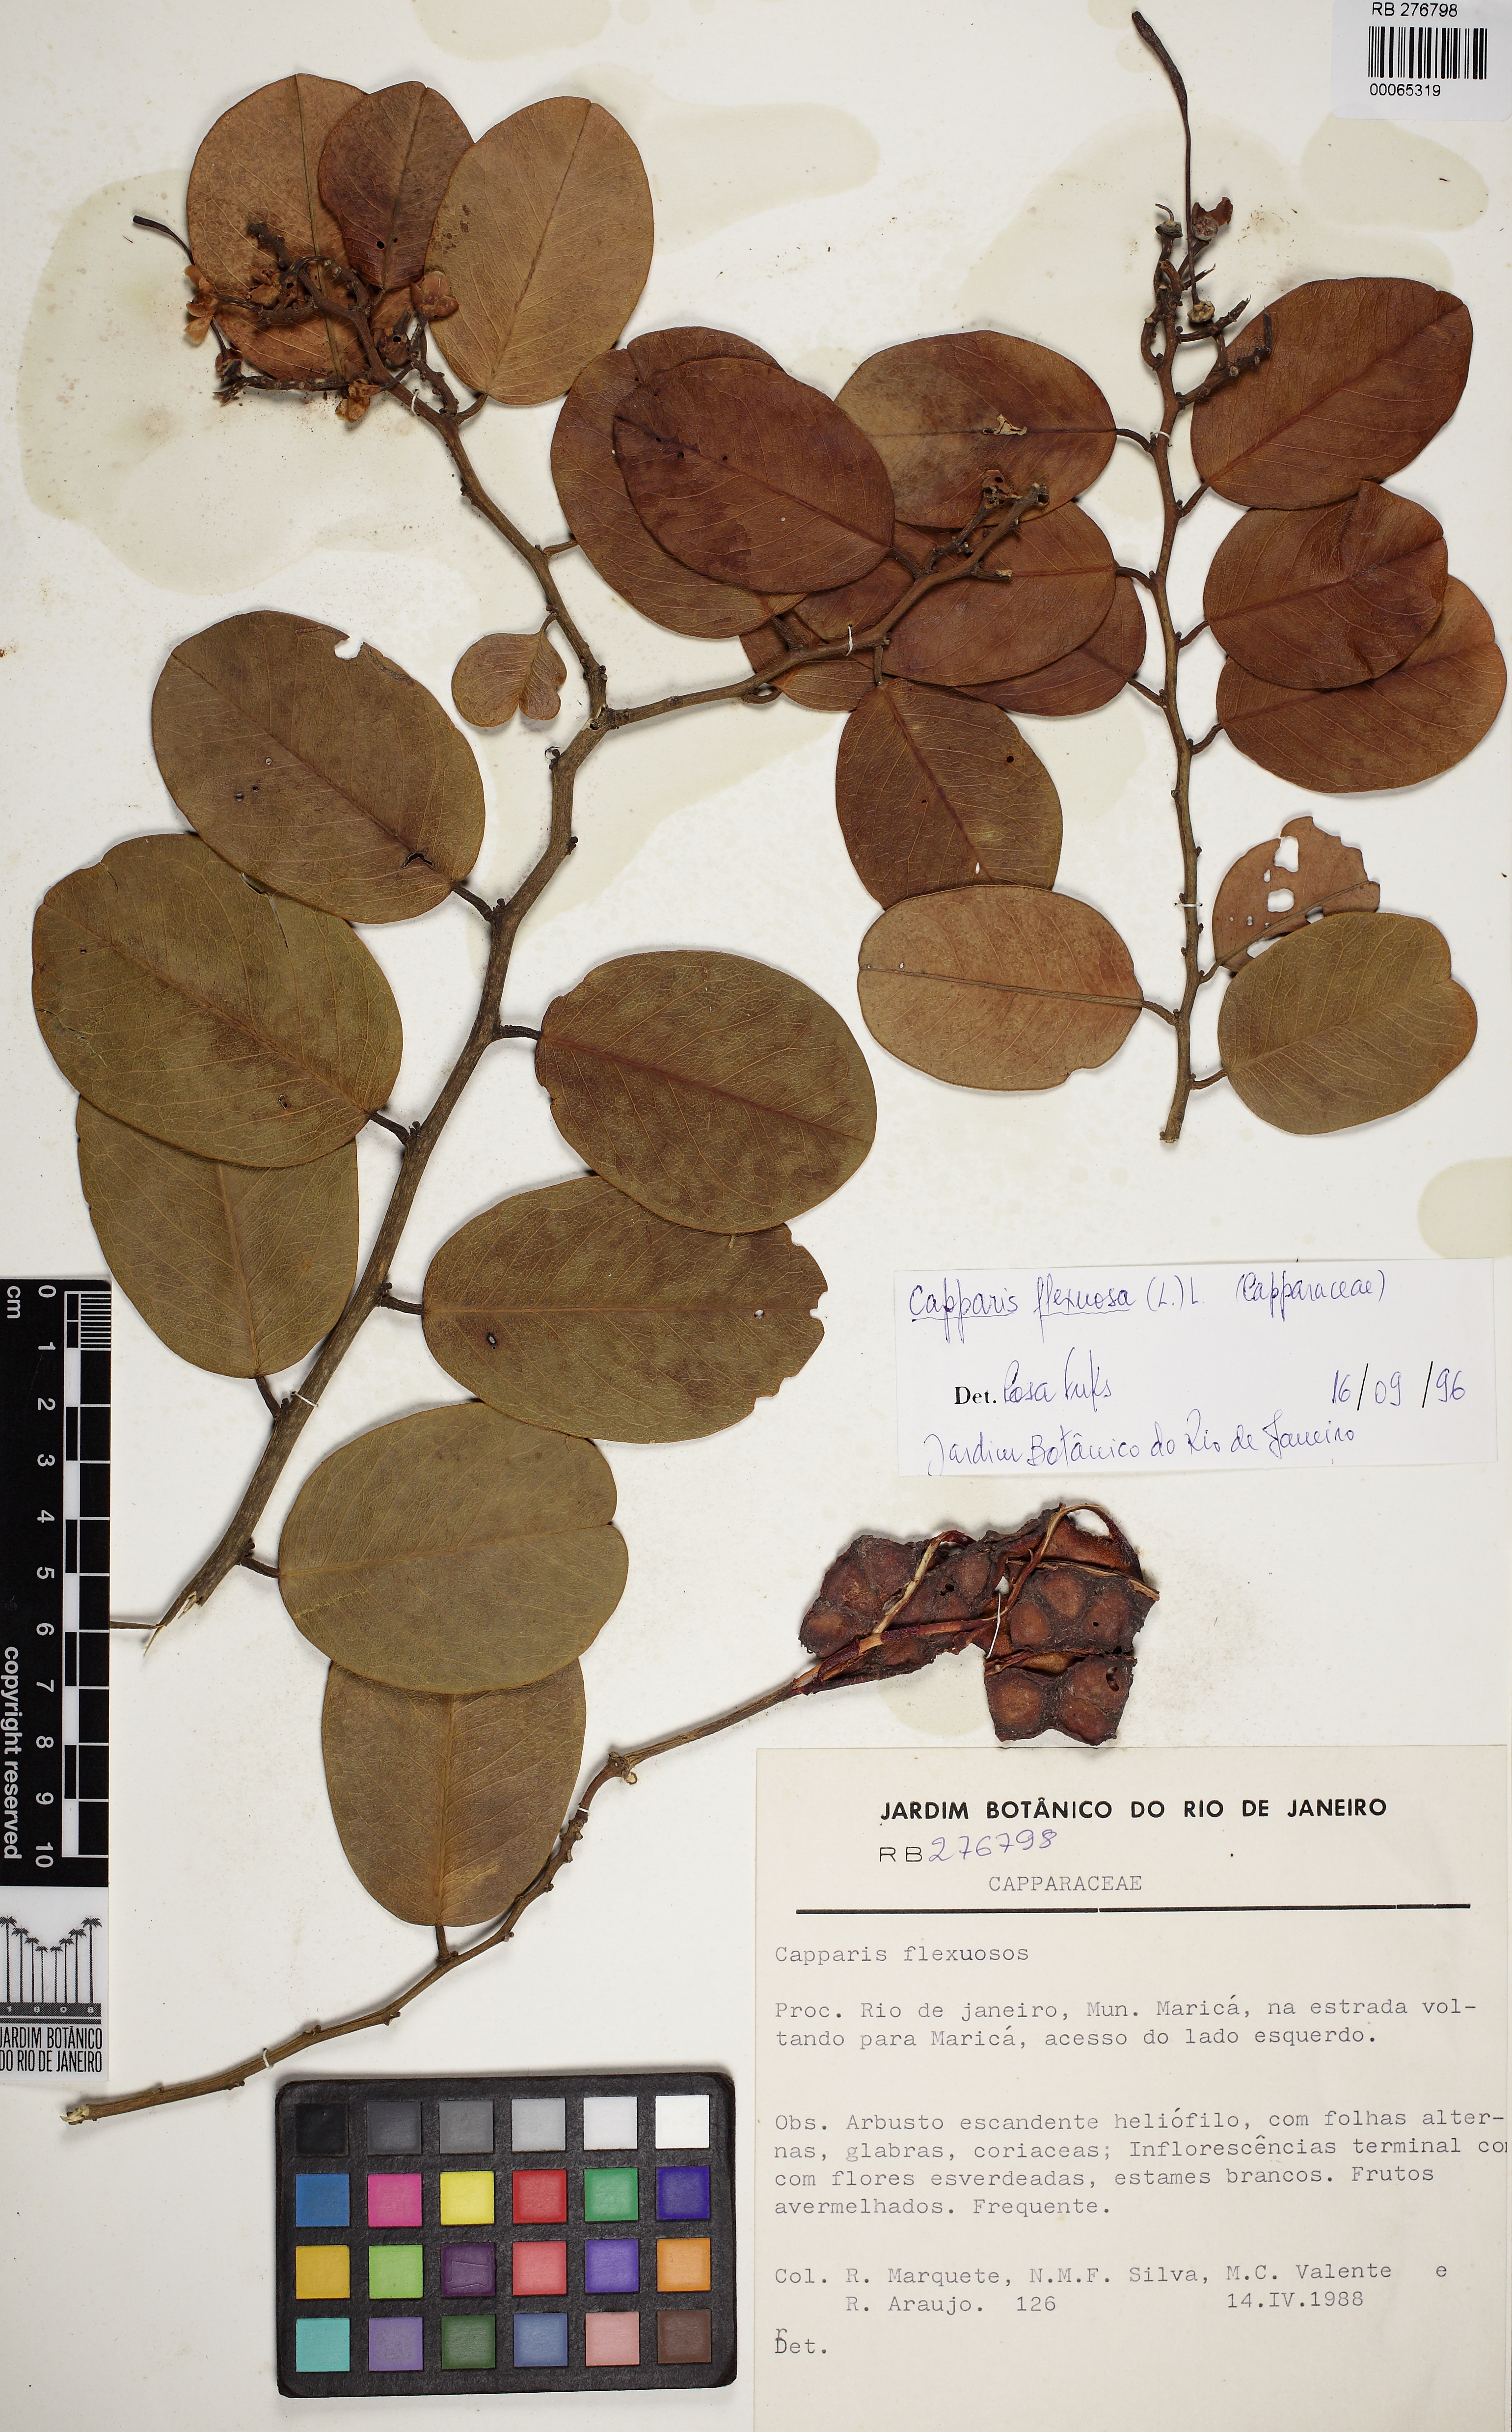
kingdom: Plantae
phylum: Tracheophyta
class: Magnoliopsida
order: Brassicales
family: Capparaceae
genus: Cynophalla
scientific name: Cynophalla flexuosa
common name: Capertree
